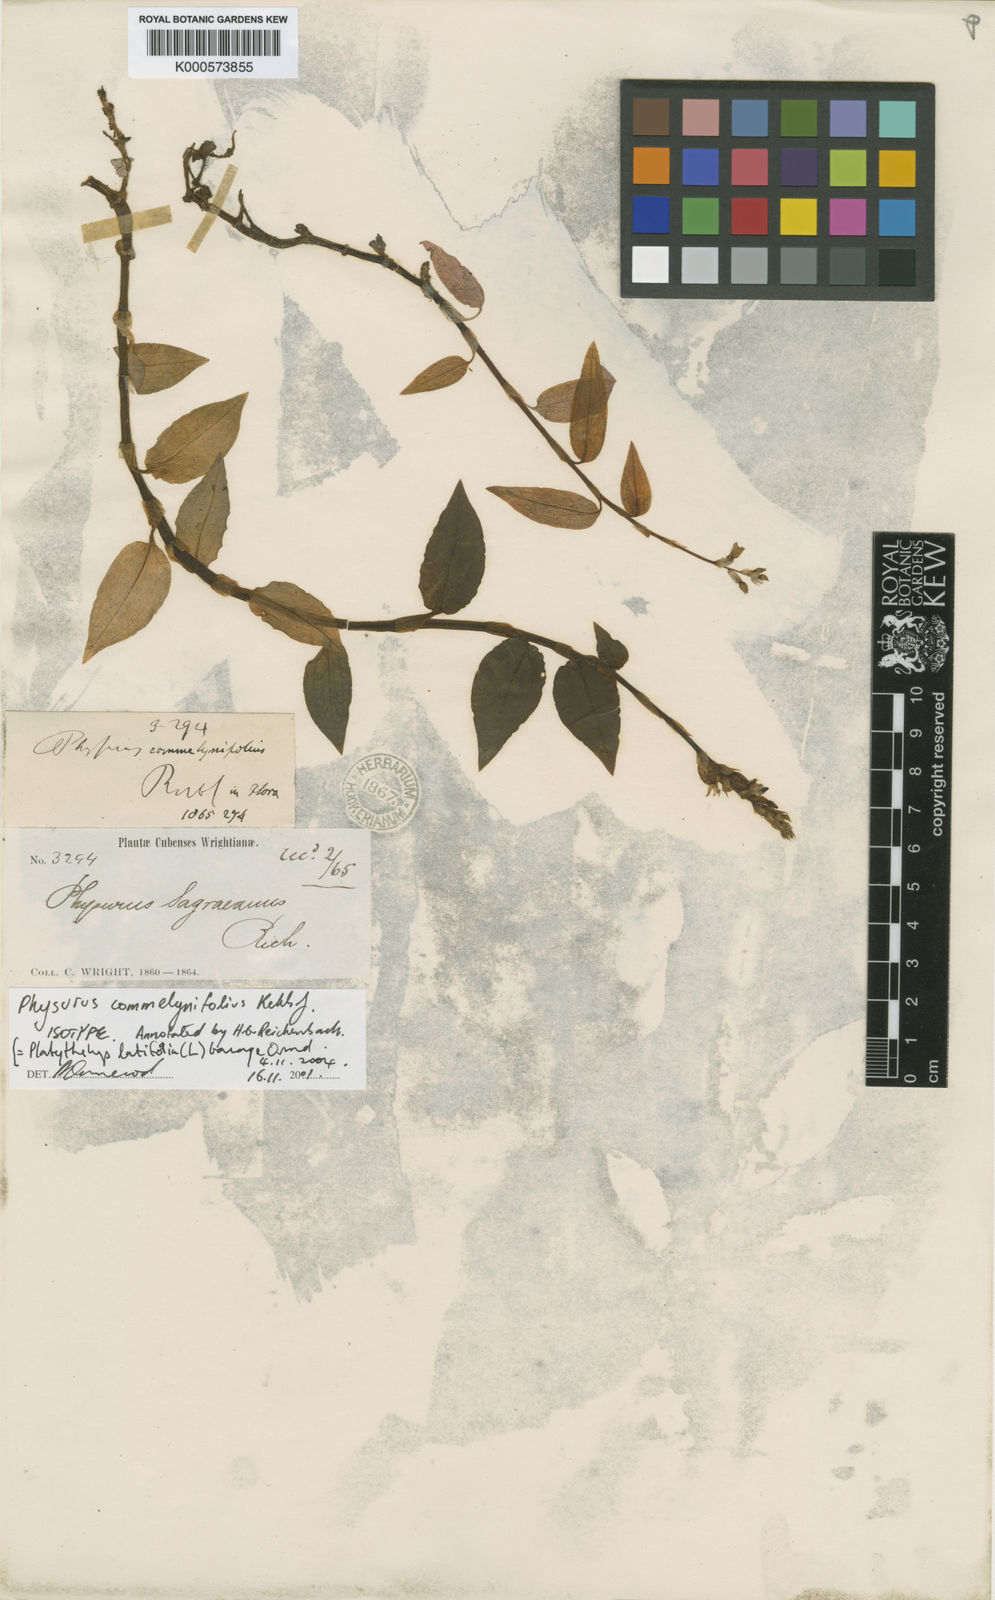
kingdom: Plantae
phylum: Tracheophyta
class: Liliopsida
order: Asparagales
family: Orchidaceae
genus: Microchilus
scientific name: Microchilus plantagineus
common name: Caribbean false helmetorchid
